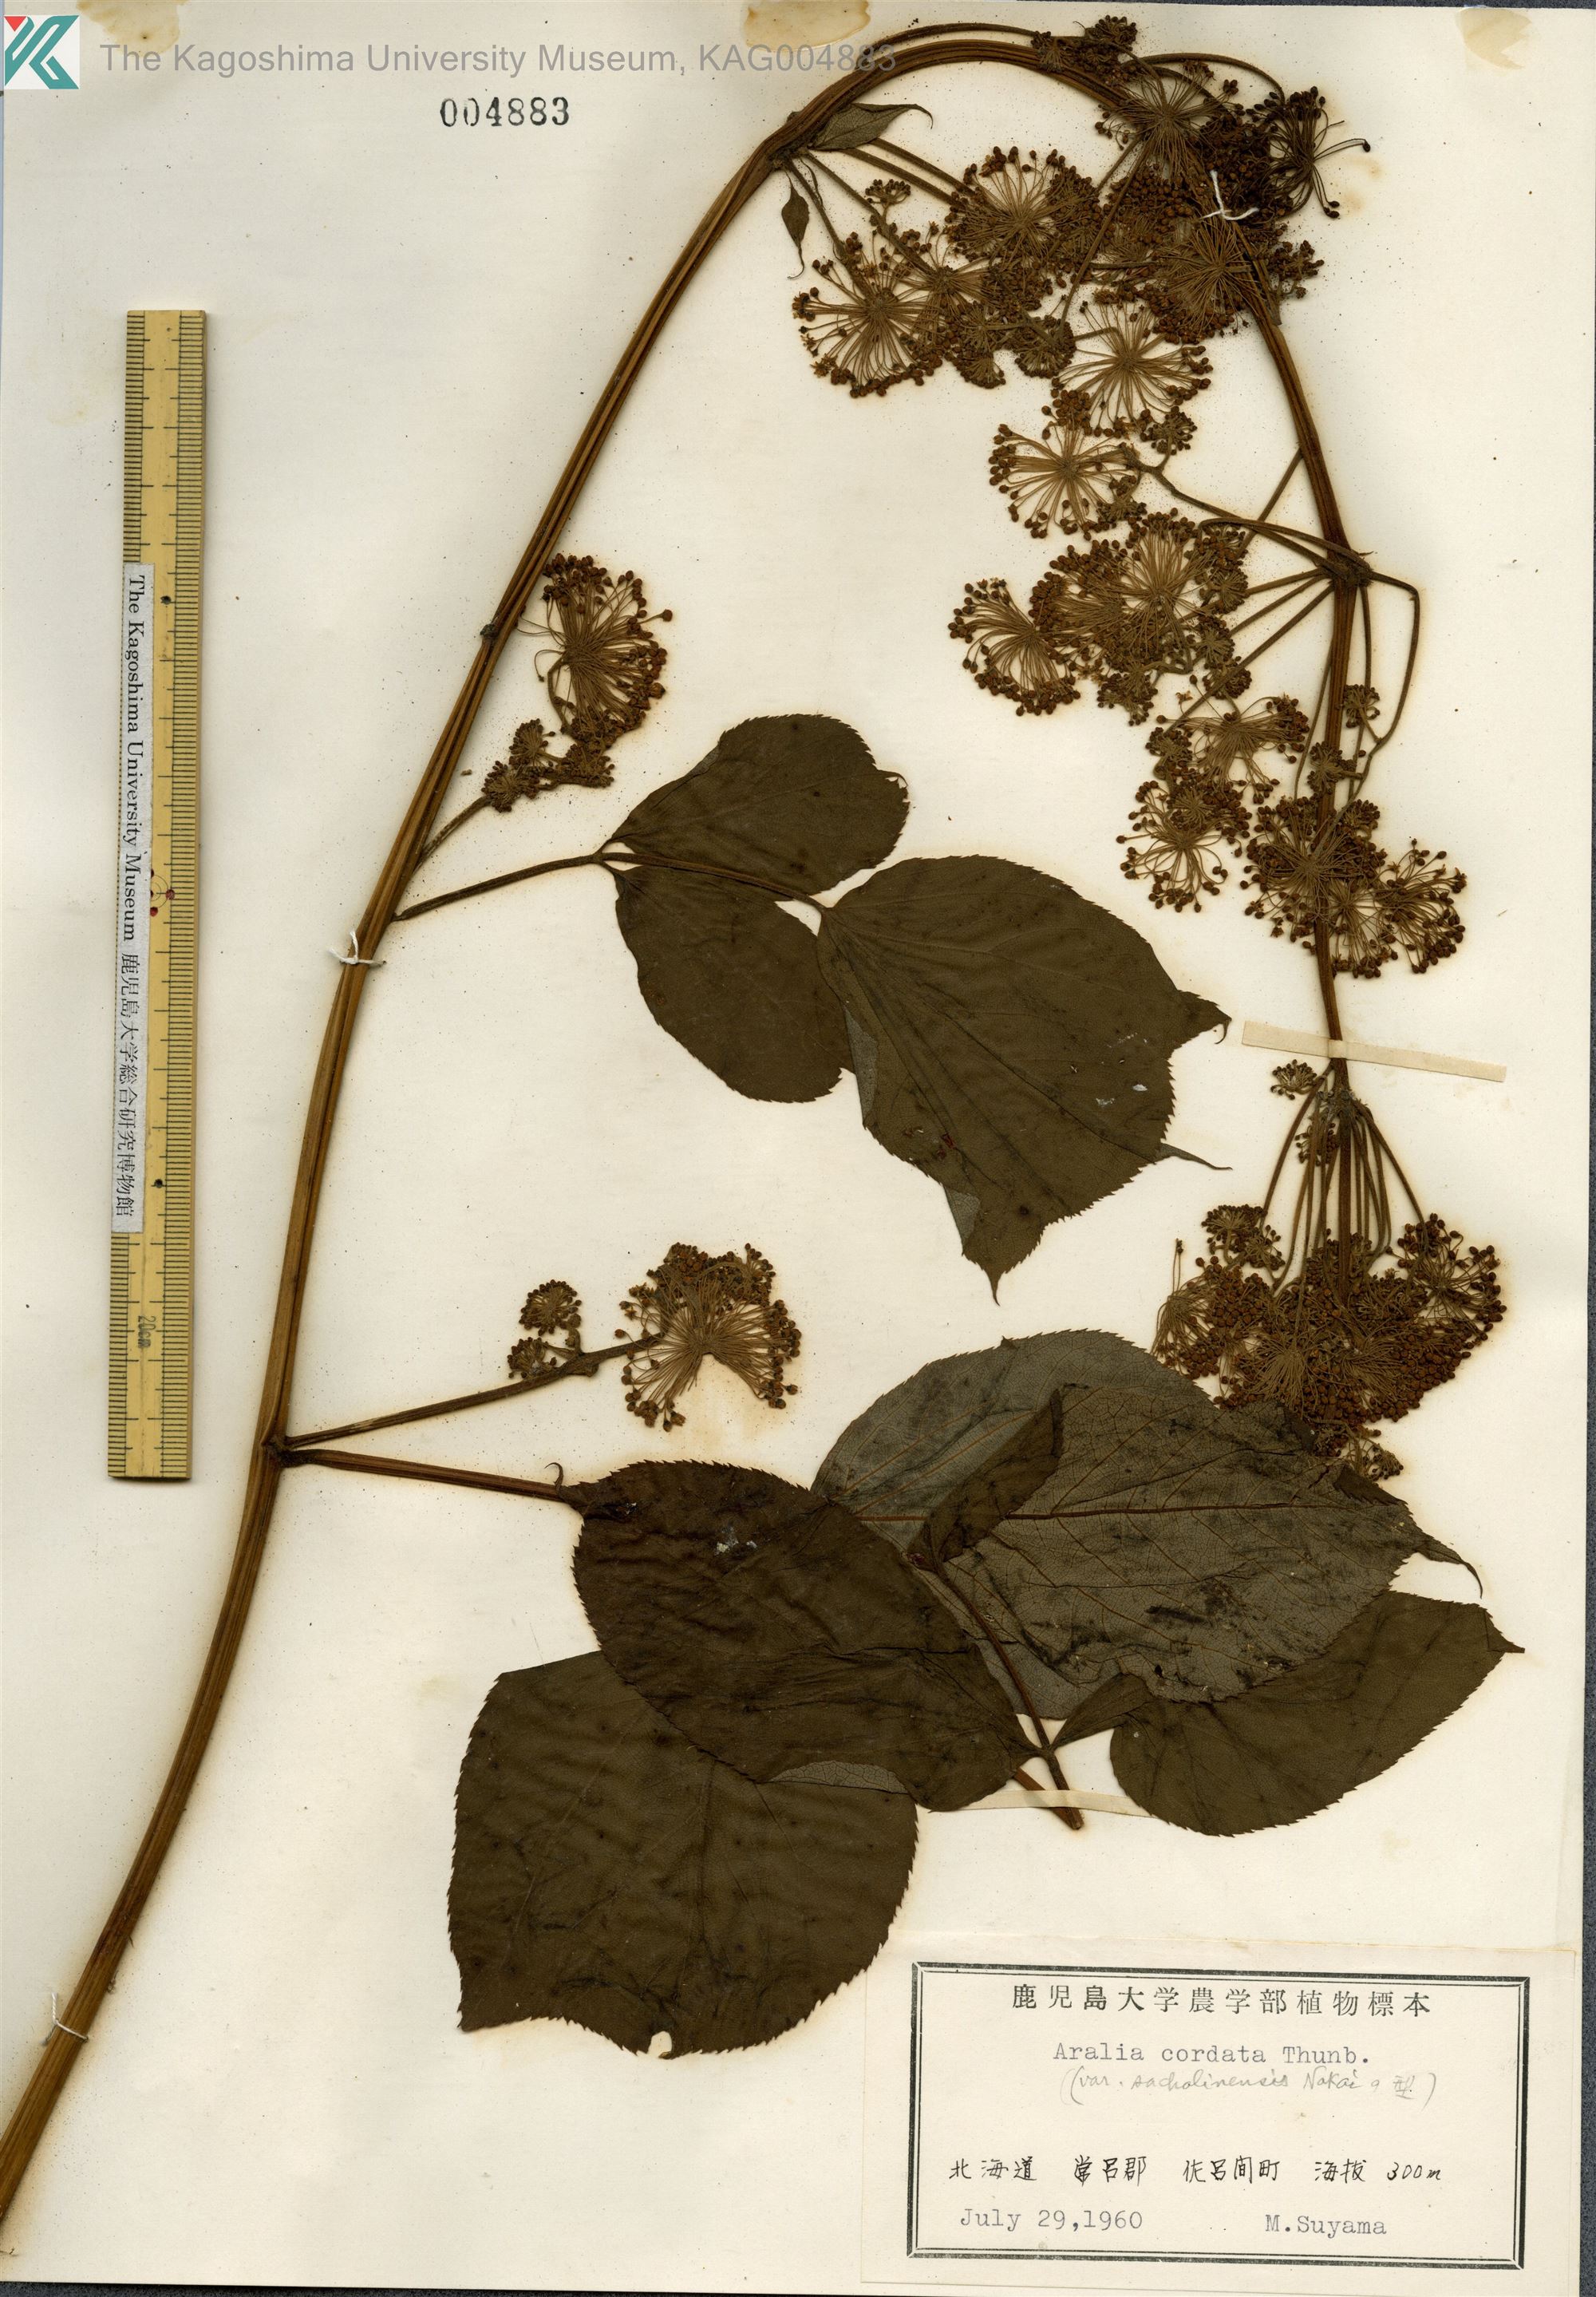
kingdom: Plantae
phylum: Tracheophyta
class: Magnoliopsida
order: Apiales
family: Araliaceae
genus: Aralia
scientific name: Aralia cordata
